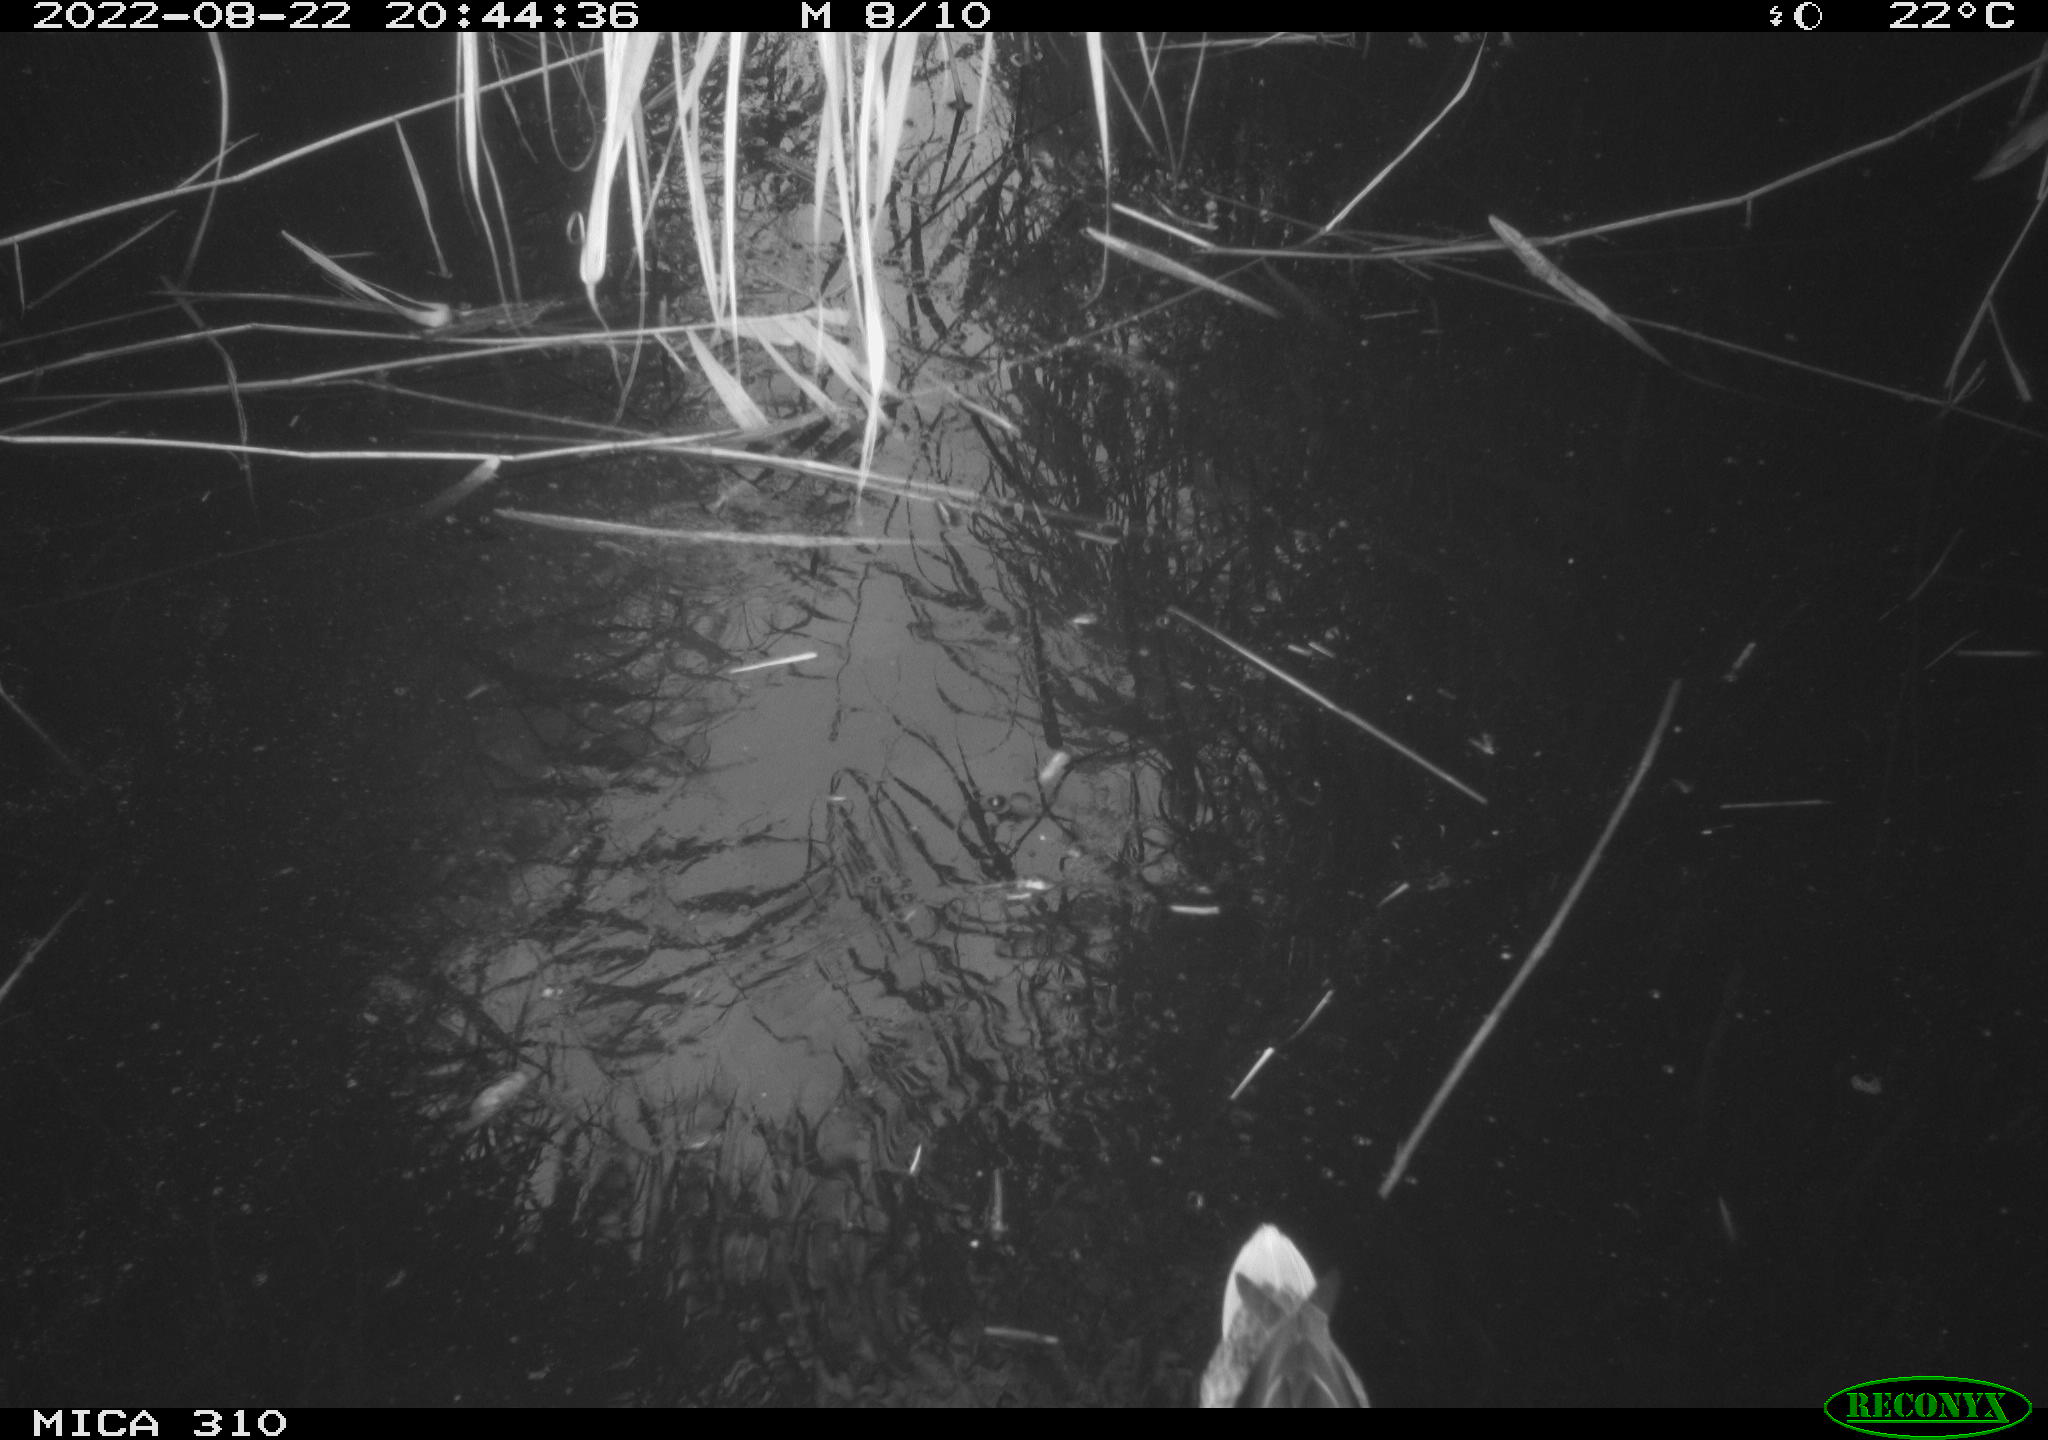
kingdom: Animalia
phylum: Chordata
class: Aves
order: Anseriformes
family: Anatidae
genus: Anas
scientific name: Anas platyrhynchos
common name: Mallard
